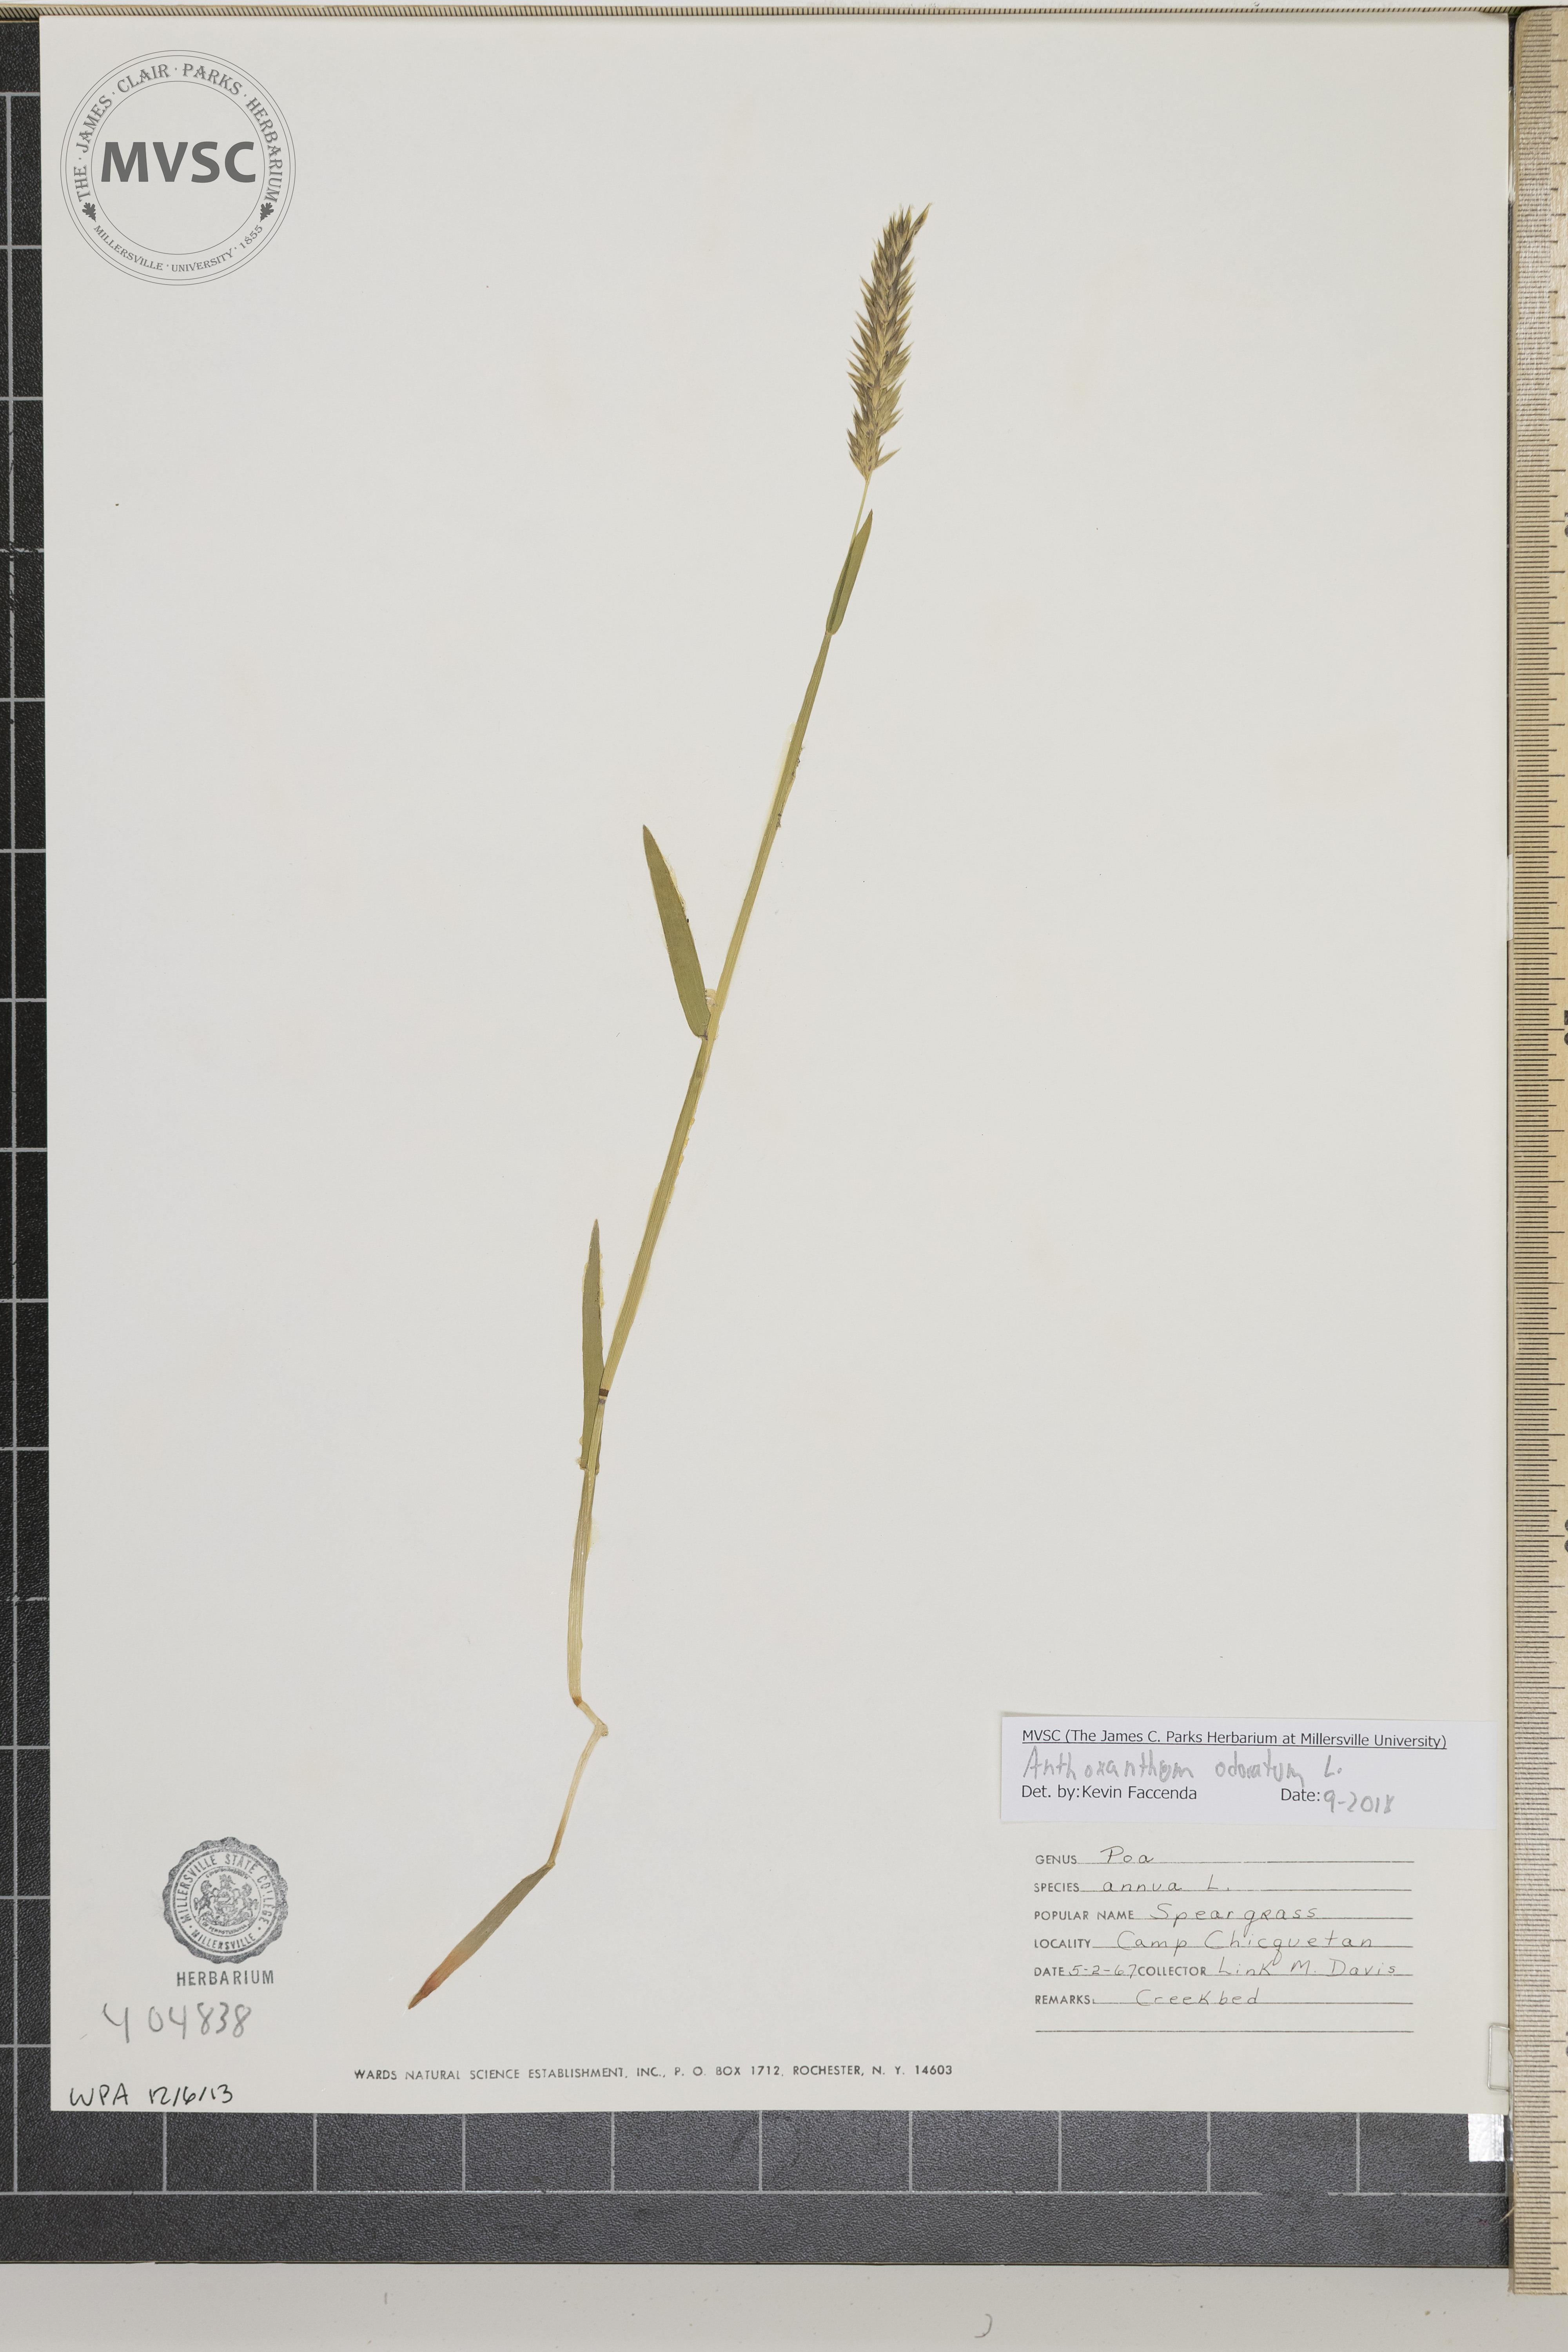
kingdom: Plantae
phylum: Tracheophyta
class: Liliopsida
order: Poales
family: Poaceae
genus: Anthoxanthum
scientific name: Anthoxanthum odoratum
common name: Sweet vernalgrass
